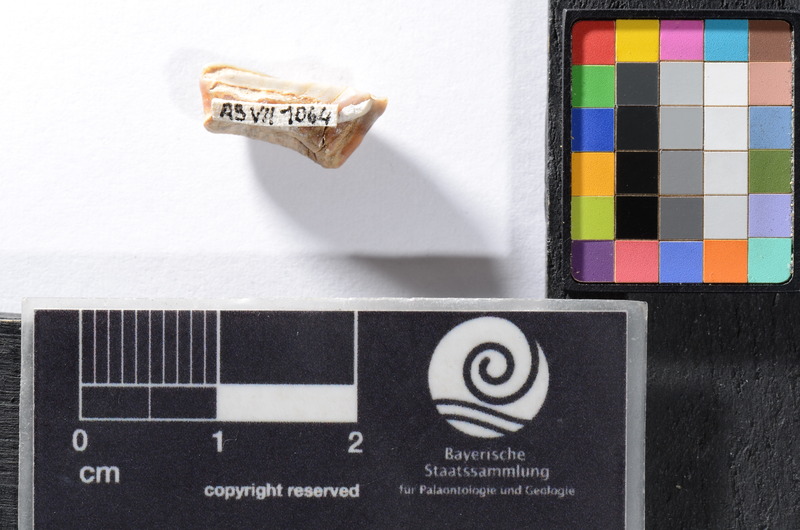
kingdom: Animalia
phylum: Chordata
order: Cypriniformes
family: Cyprinidae
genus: Capitodus
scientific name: Capitodus
